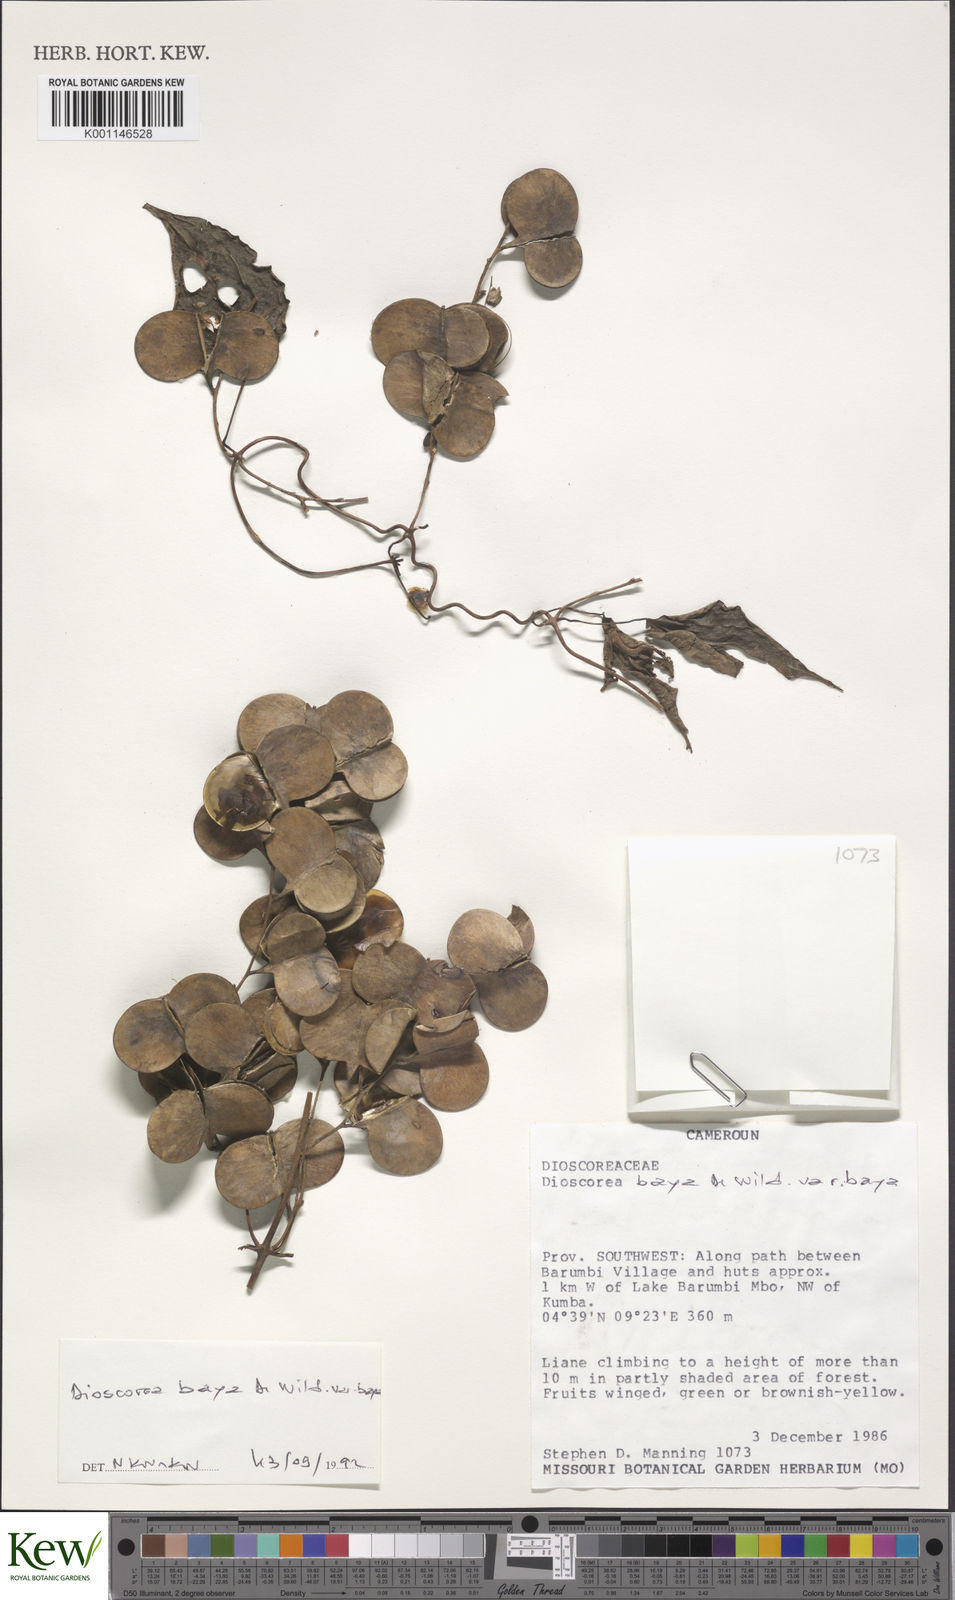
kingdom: Plantae
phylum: Tracheophyta
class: Liliopsida
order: Dioscoreales
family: Dioscoreaceae
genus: Dioscorea
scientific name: Dioscorea
